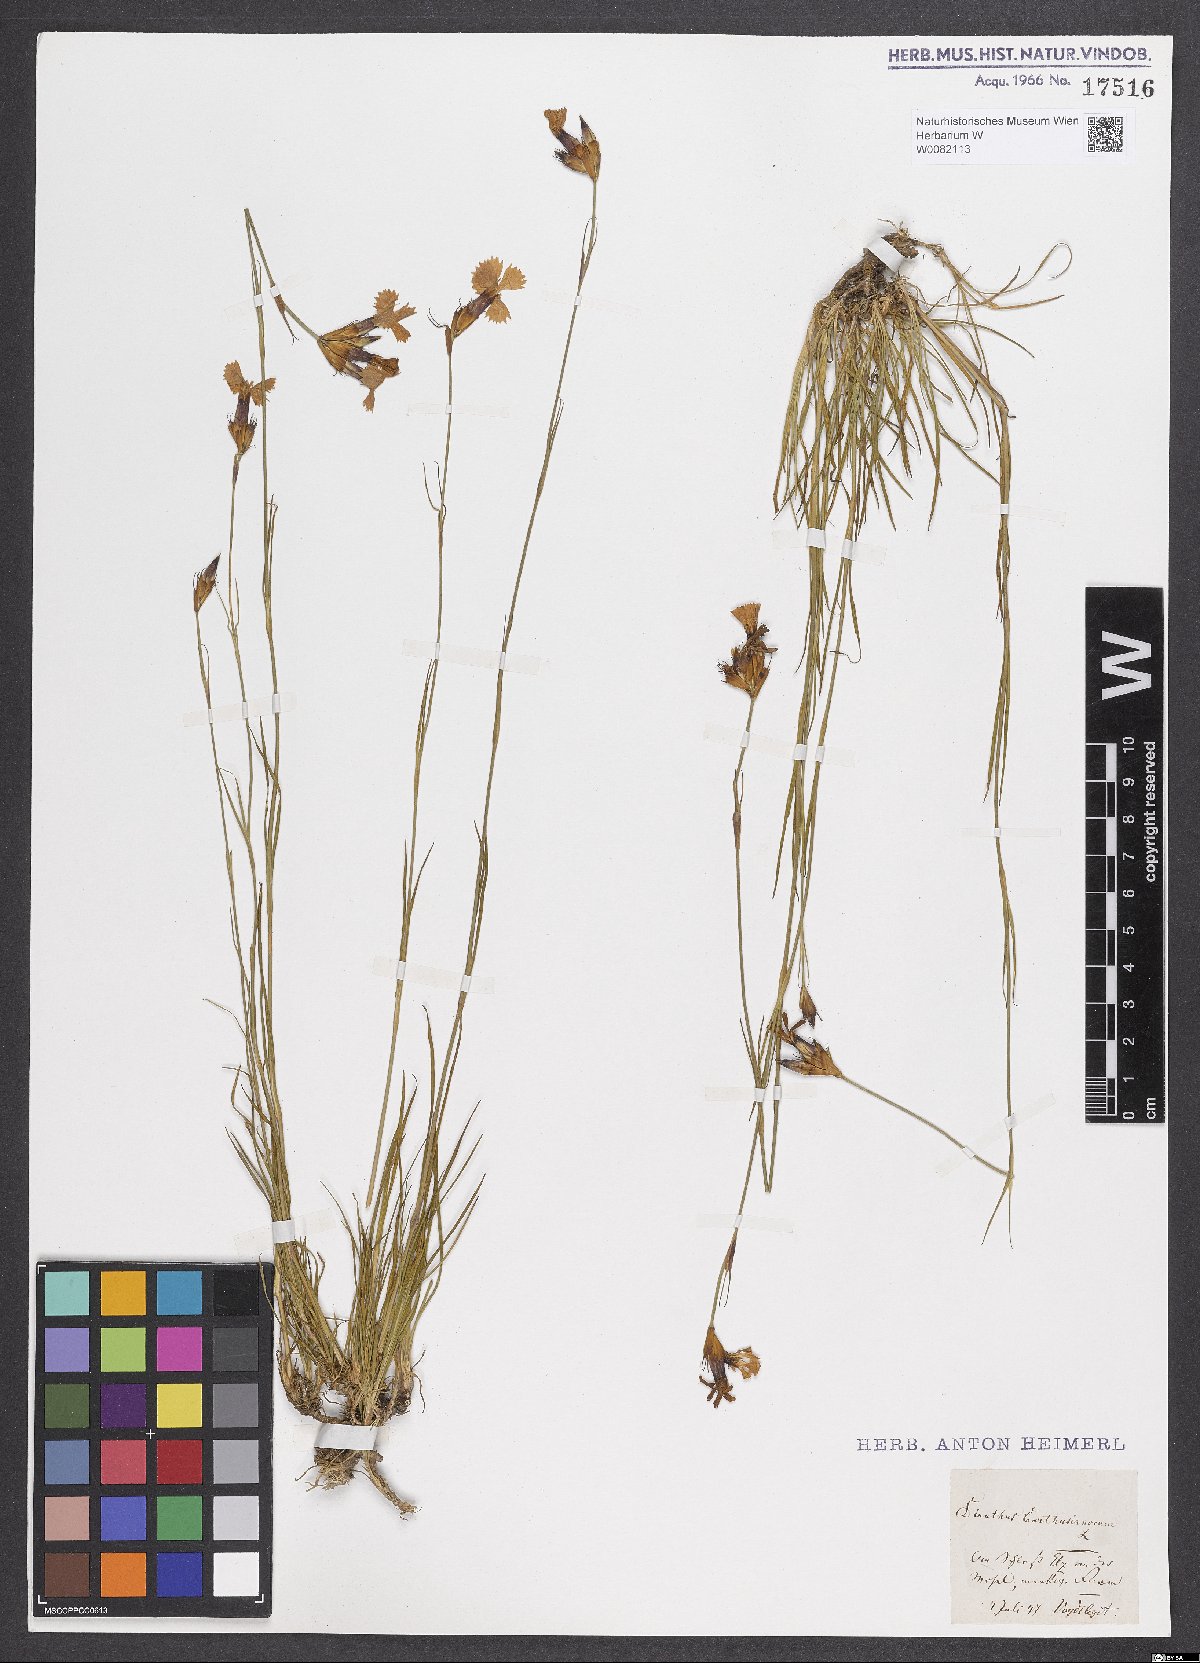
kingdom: Plantae
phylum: Tracheophyta
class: Magnoliopsida
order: Caryophyllales
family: Caryophyllaceae
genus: Dianthus
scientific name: Dianthus carthusianorum
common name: Carthusian pink
